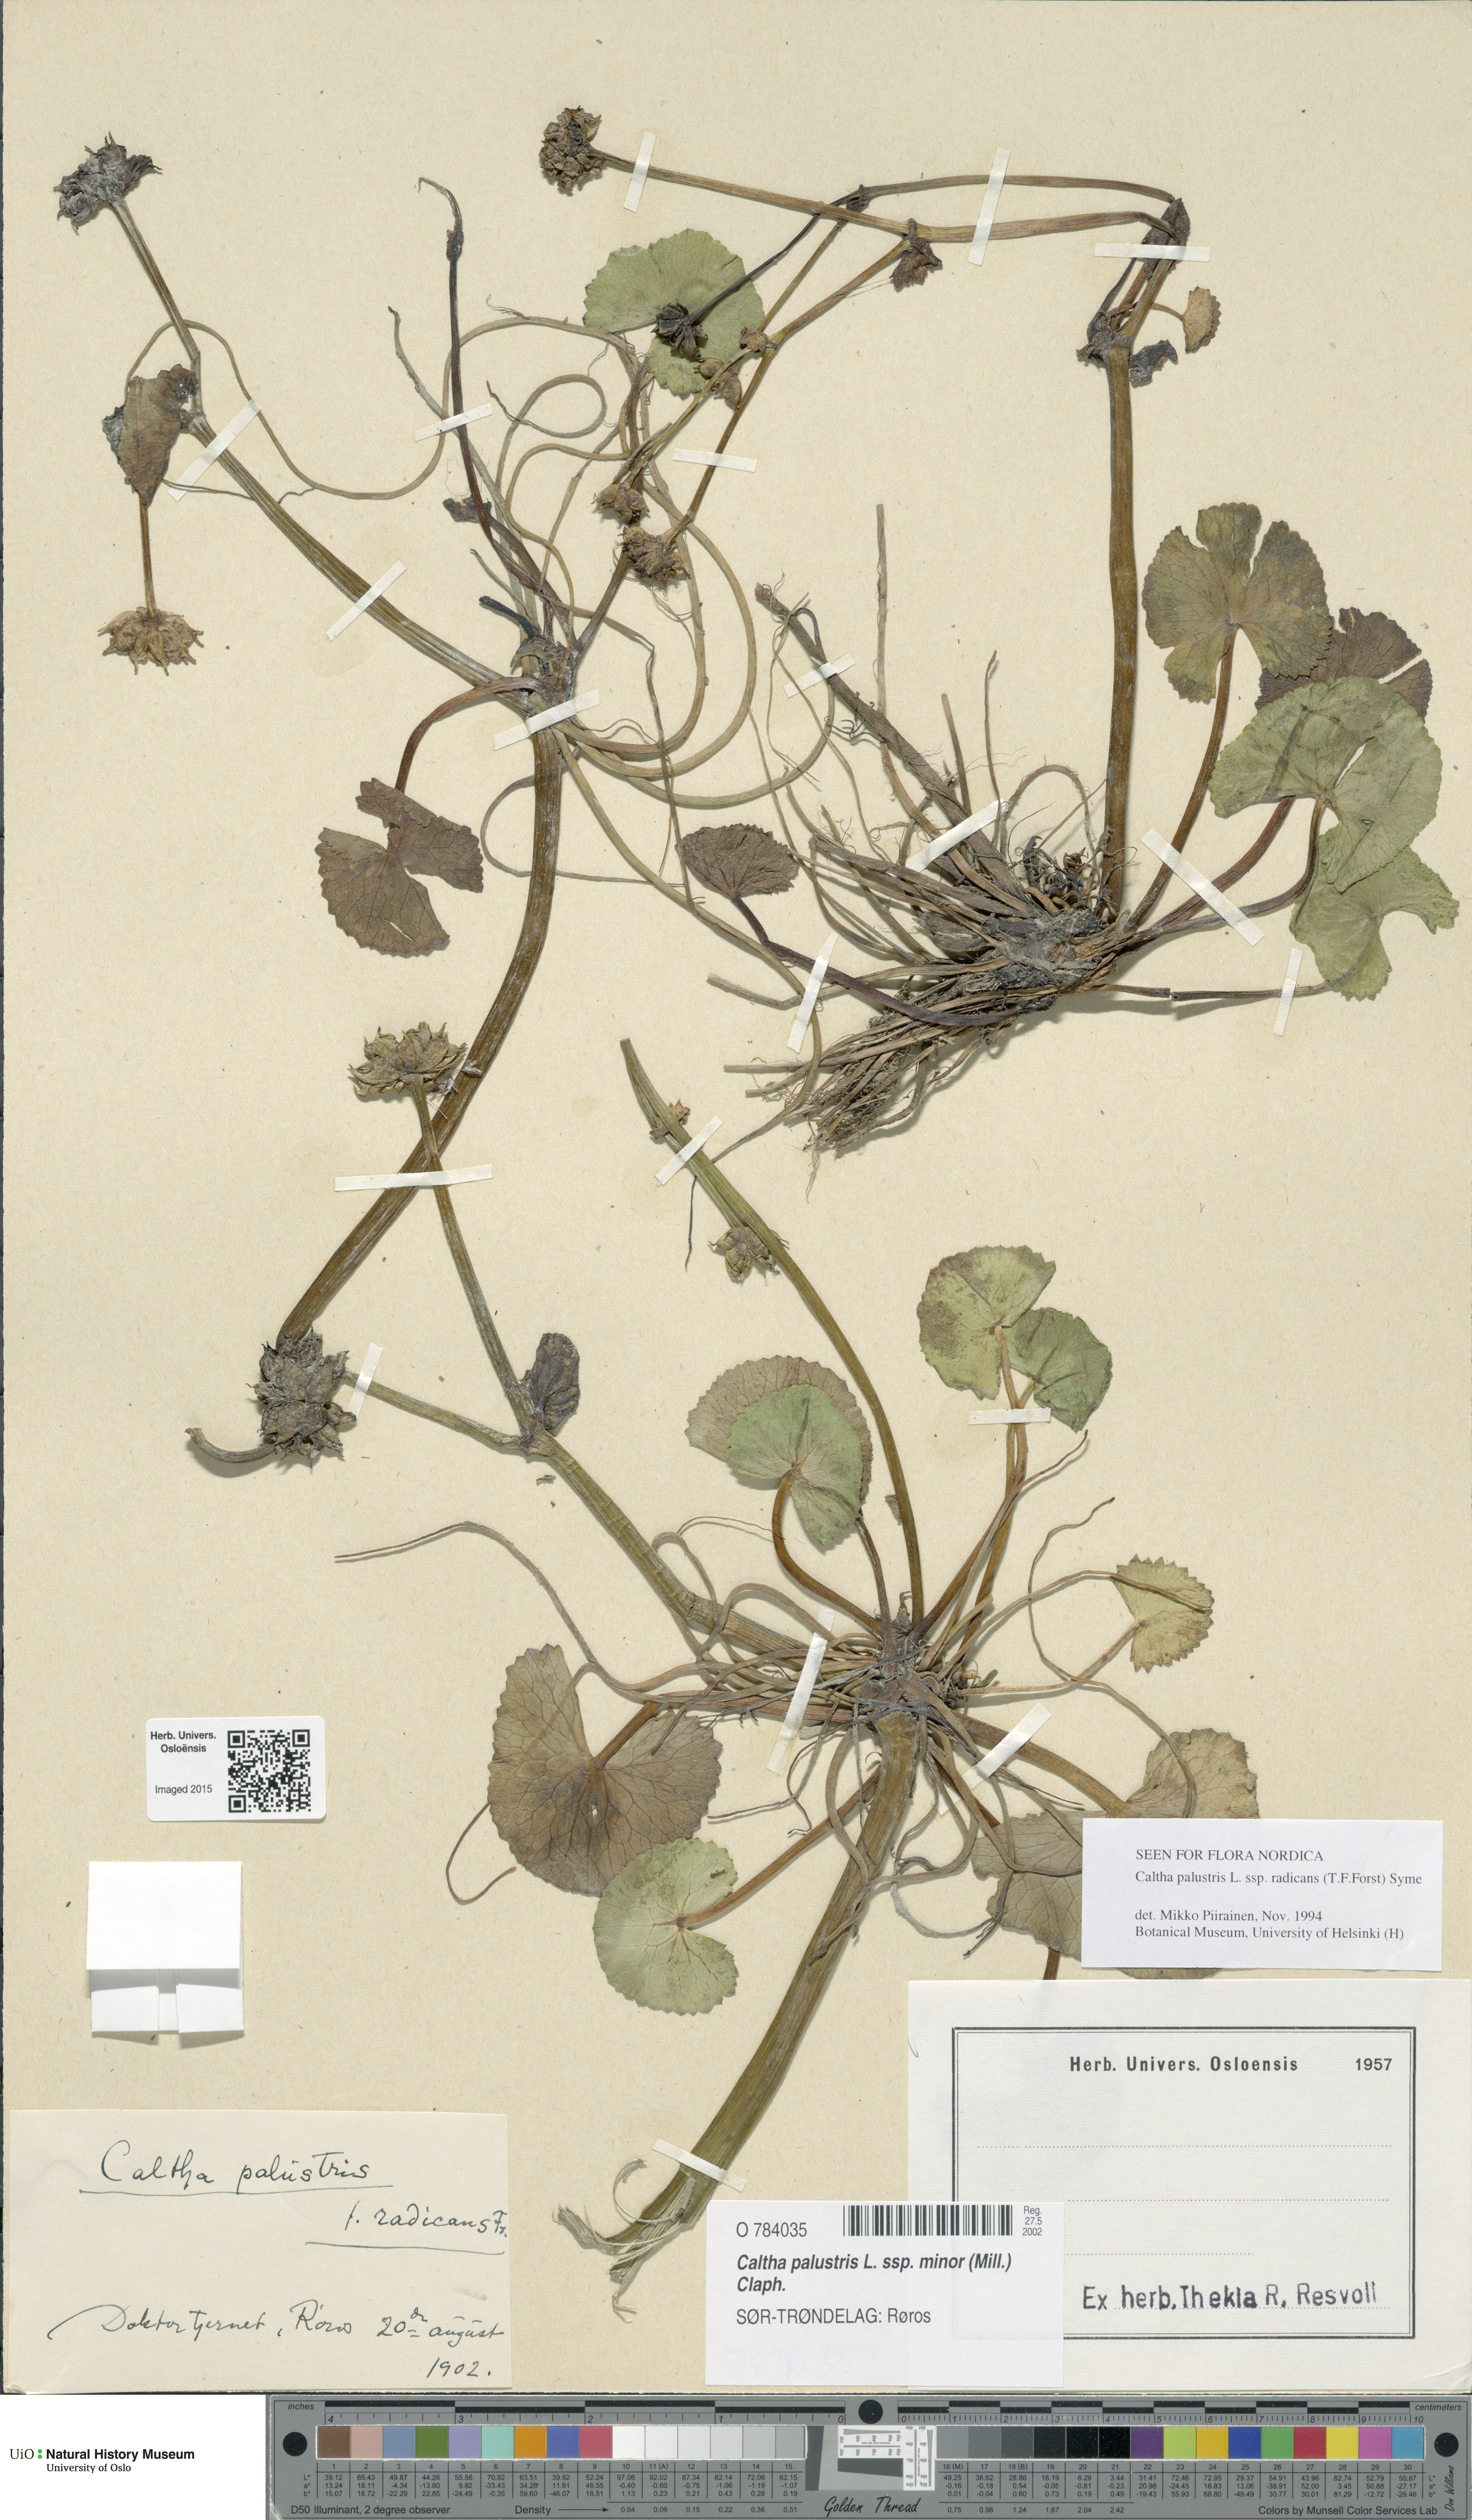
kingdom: Plantae
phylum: Tracheophyta
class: Magnoliopsida
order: Ranunculales
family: Ranunculaceae
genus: Caltha
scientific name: Caltha palustris
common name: Marsh marigold
